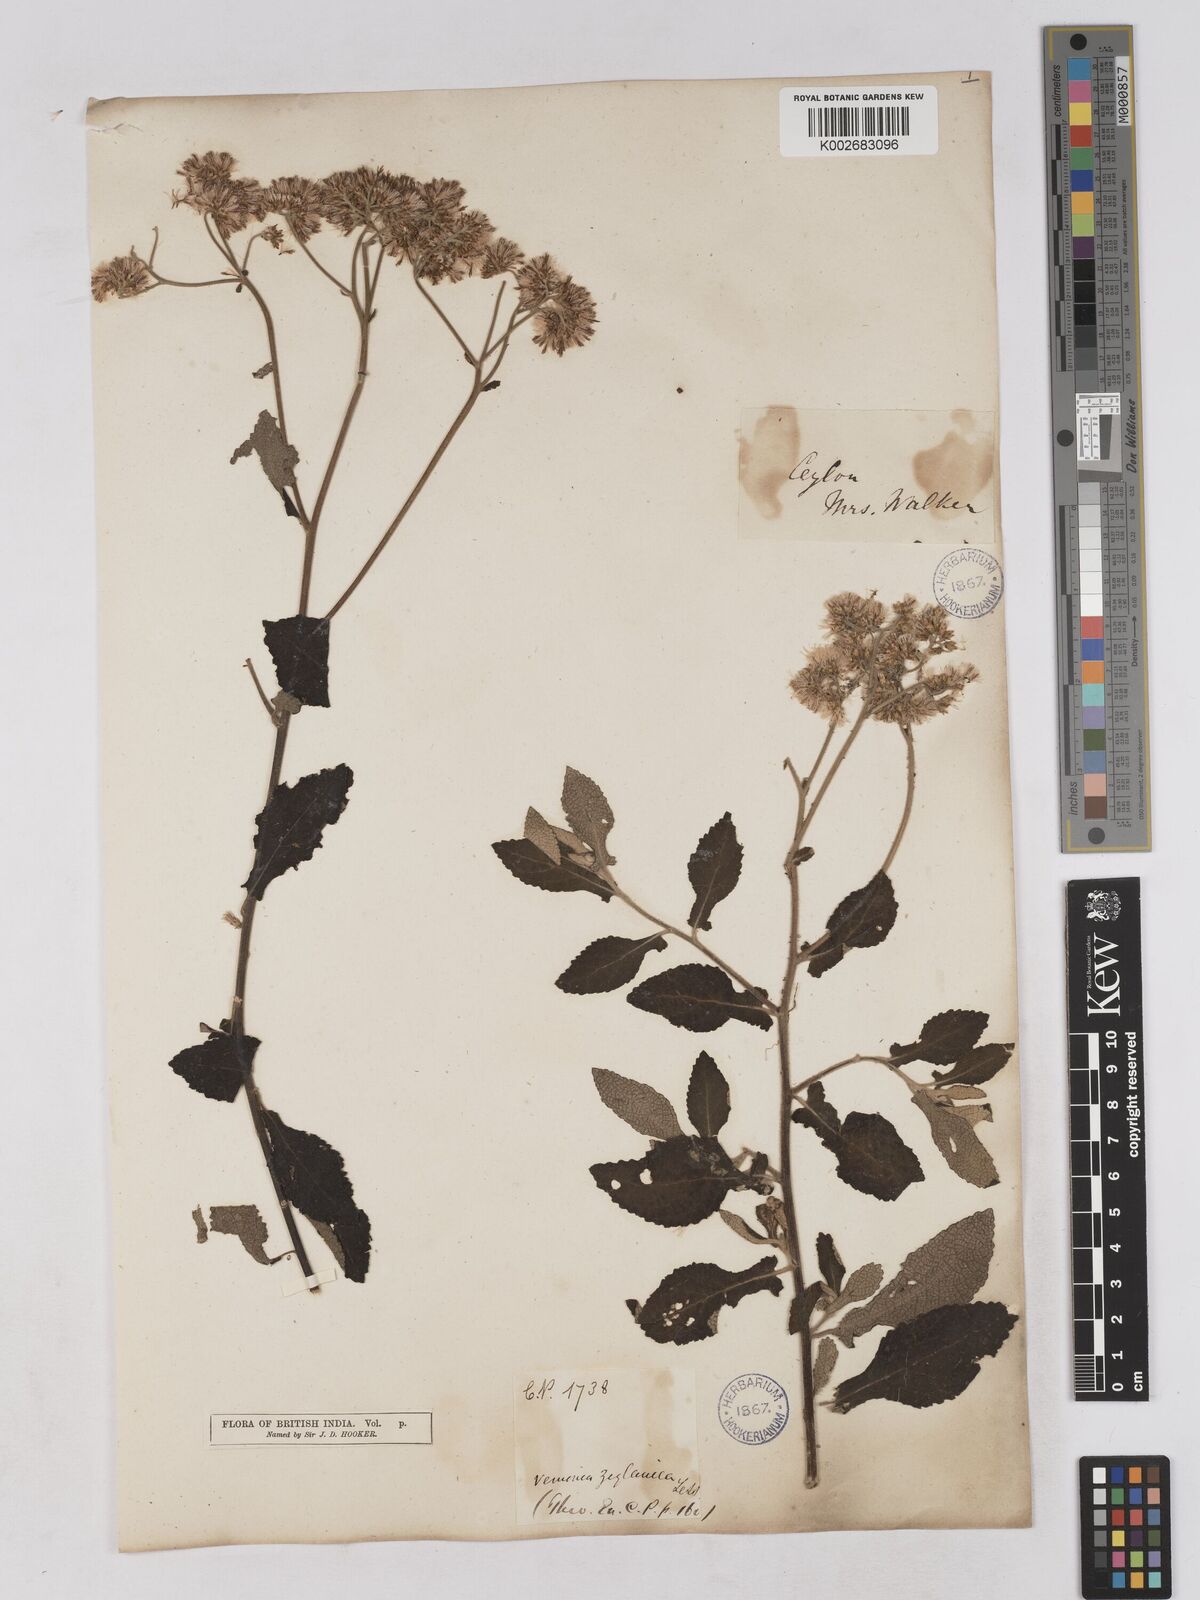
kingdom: Plantae
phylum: Tracheophyta
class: Magnoliopsida
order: Asterales
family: Asteraceae
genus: Jeffreycia
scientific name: Jeffreycia zeylanica
